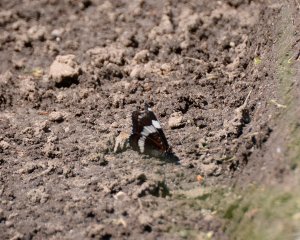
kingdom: Animalia
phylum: Arthropoda
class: Insecta
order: Lepidoptera
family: Nymphalidae
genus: Limenitis
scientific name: Limenitis arthemis
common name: Red-spotted Admiral
